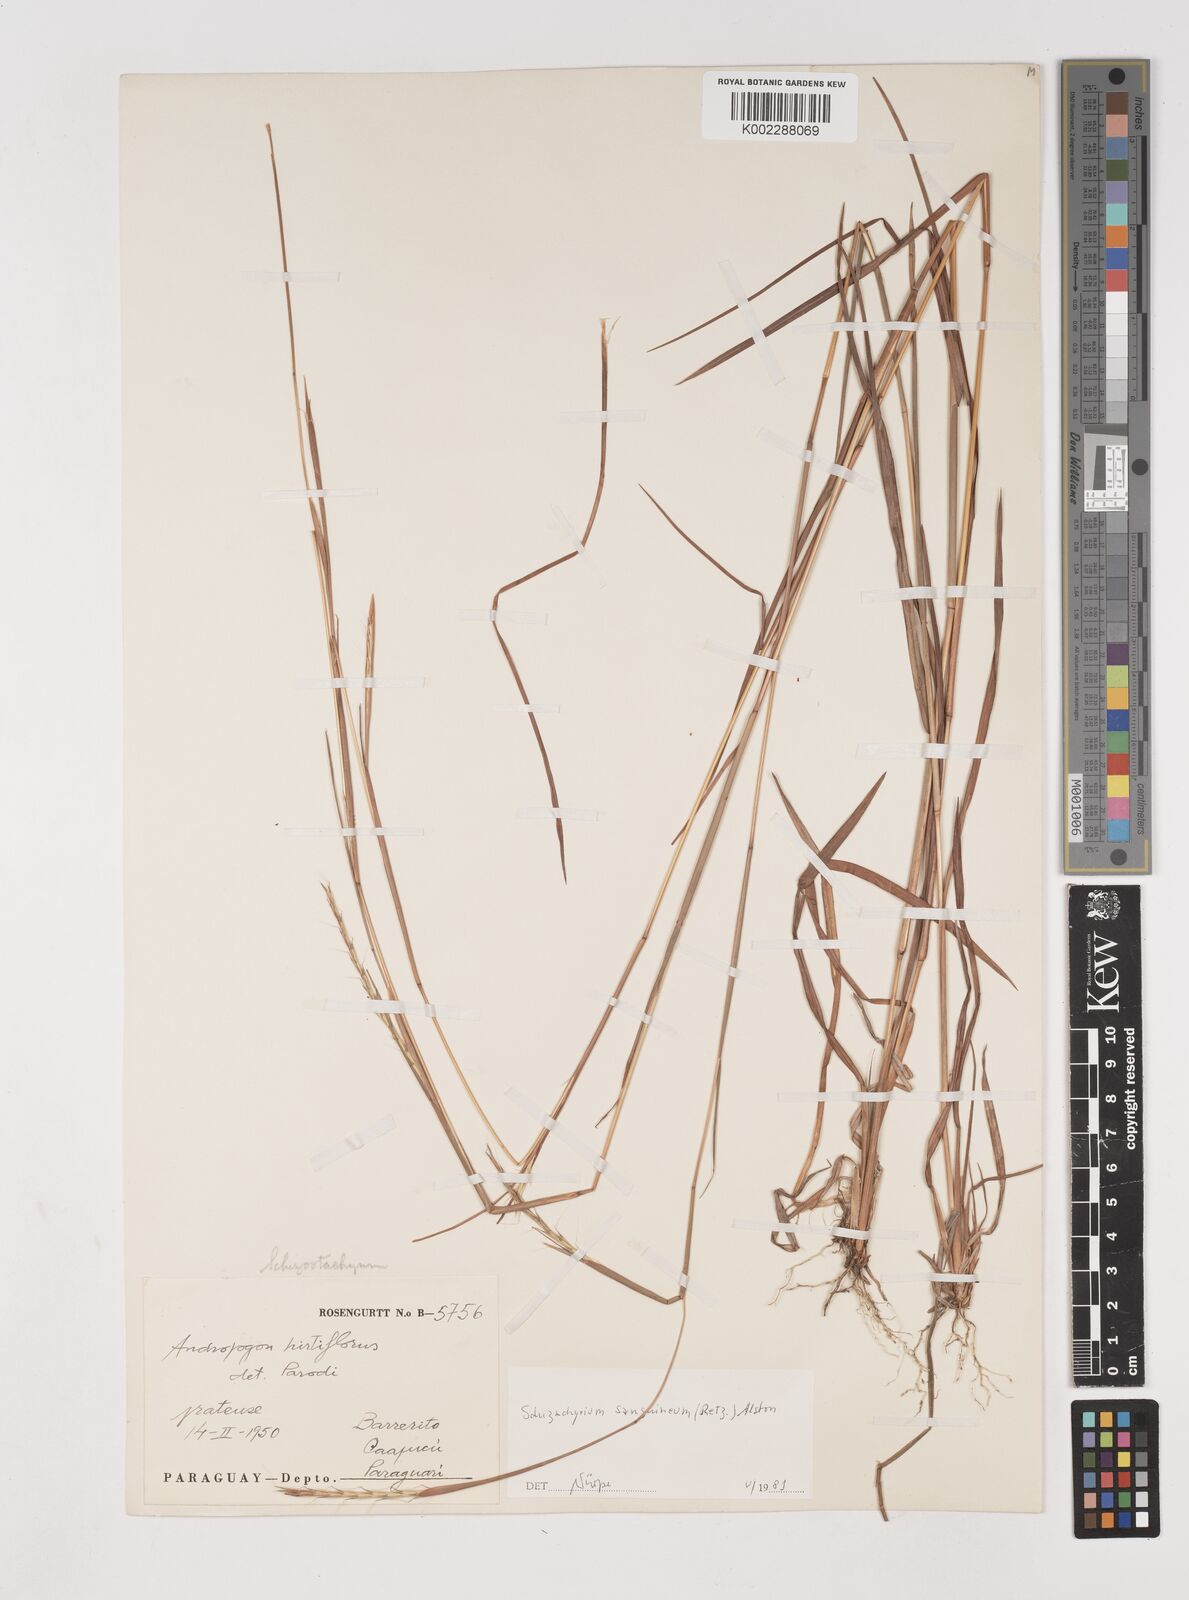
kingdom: Plantae
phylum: Tracheophyta
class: Liliopsida
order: Poales
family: Poaceae
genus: Schizachyrium
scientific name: Schizachyrium sanguineum
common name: Crimson bluestem
